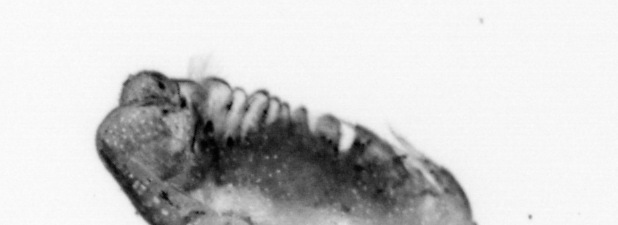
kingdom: Animalia
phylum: Annelida
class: Polychaeta
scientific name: Polychaeta
